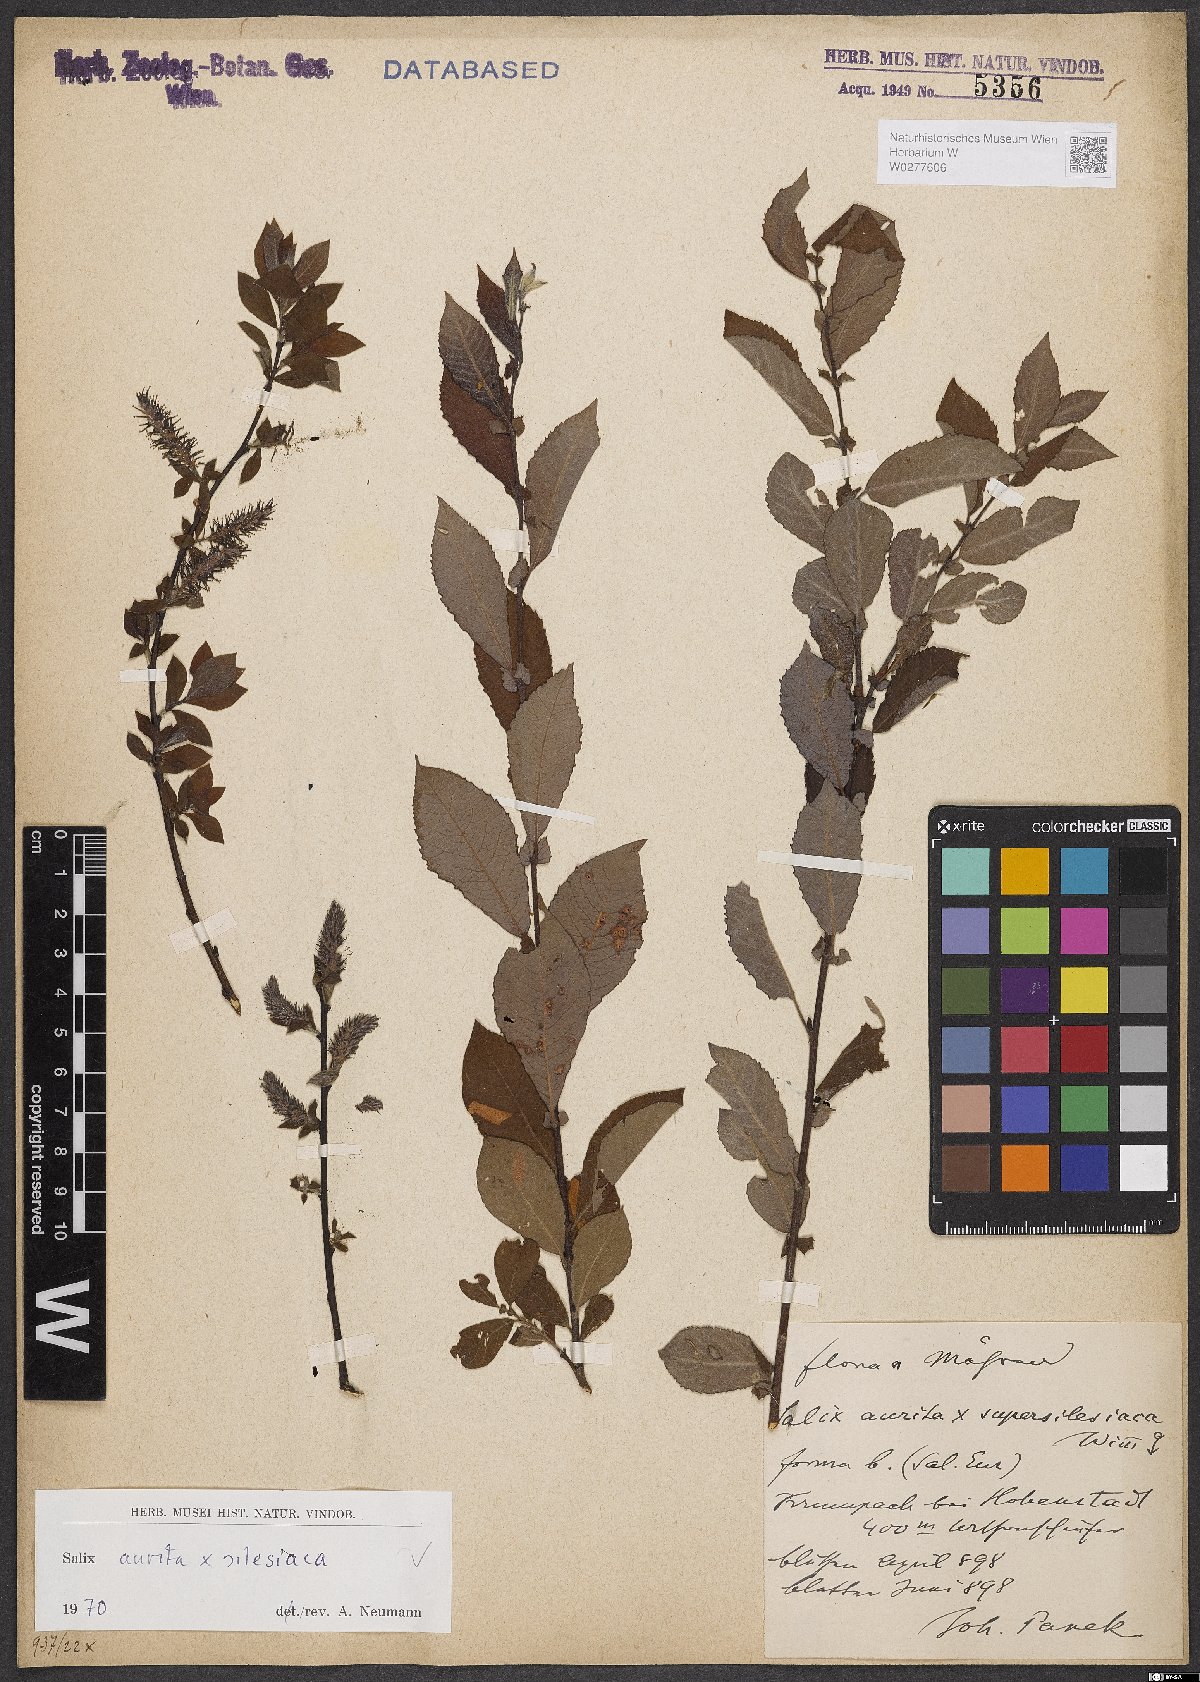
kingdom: Plantae
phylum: Tracheophyta
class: Magnoliopsida
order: Malpighiales
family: Salicaceae
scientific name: Salicaceae
